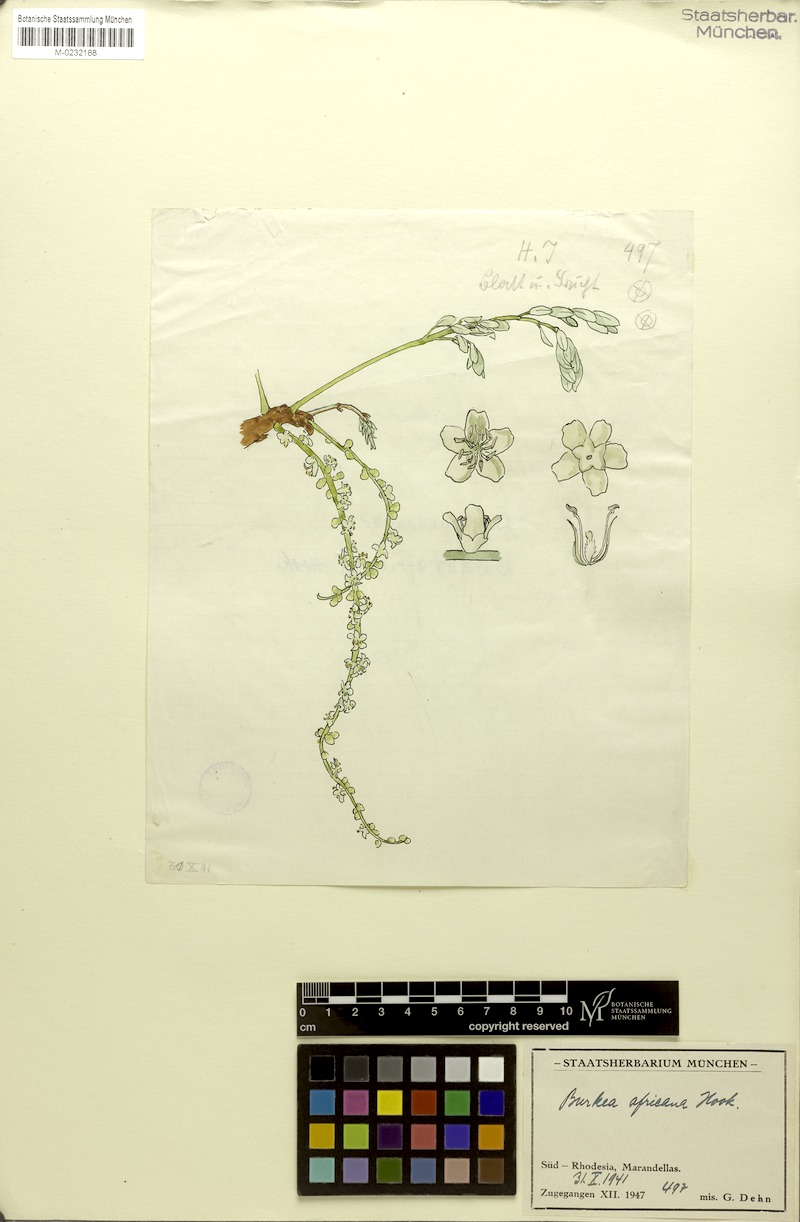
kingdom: Plantae
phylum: Tracheophyta
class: Magnoliopsida
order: Fabales
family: Fabaceae
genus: Burkea
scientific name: Burkea africana
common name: Mkalati tree
